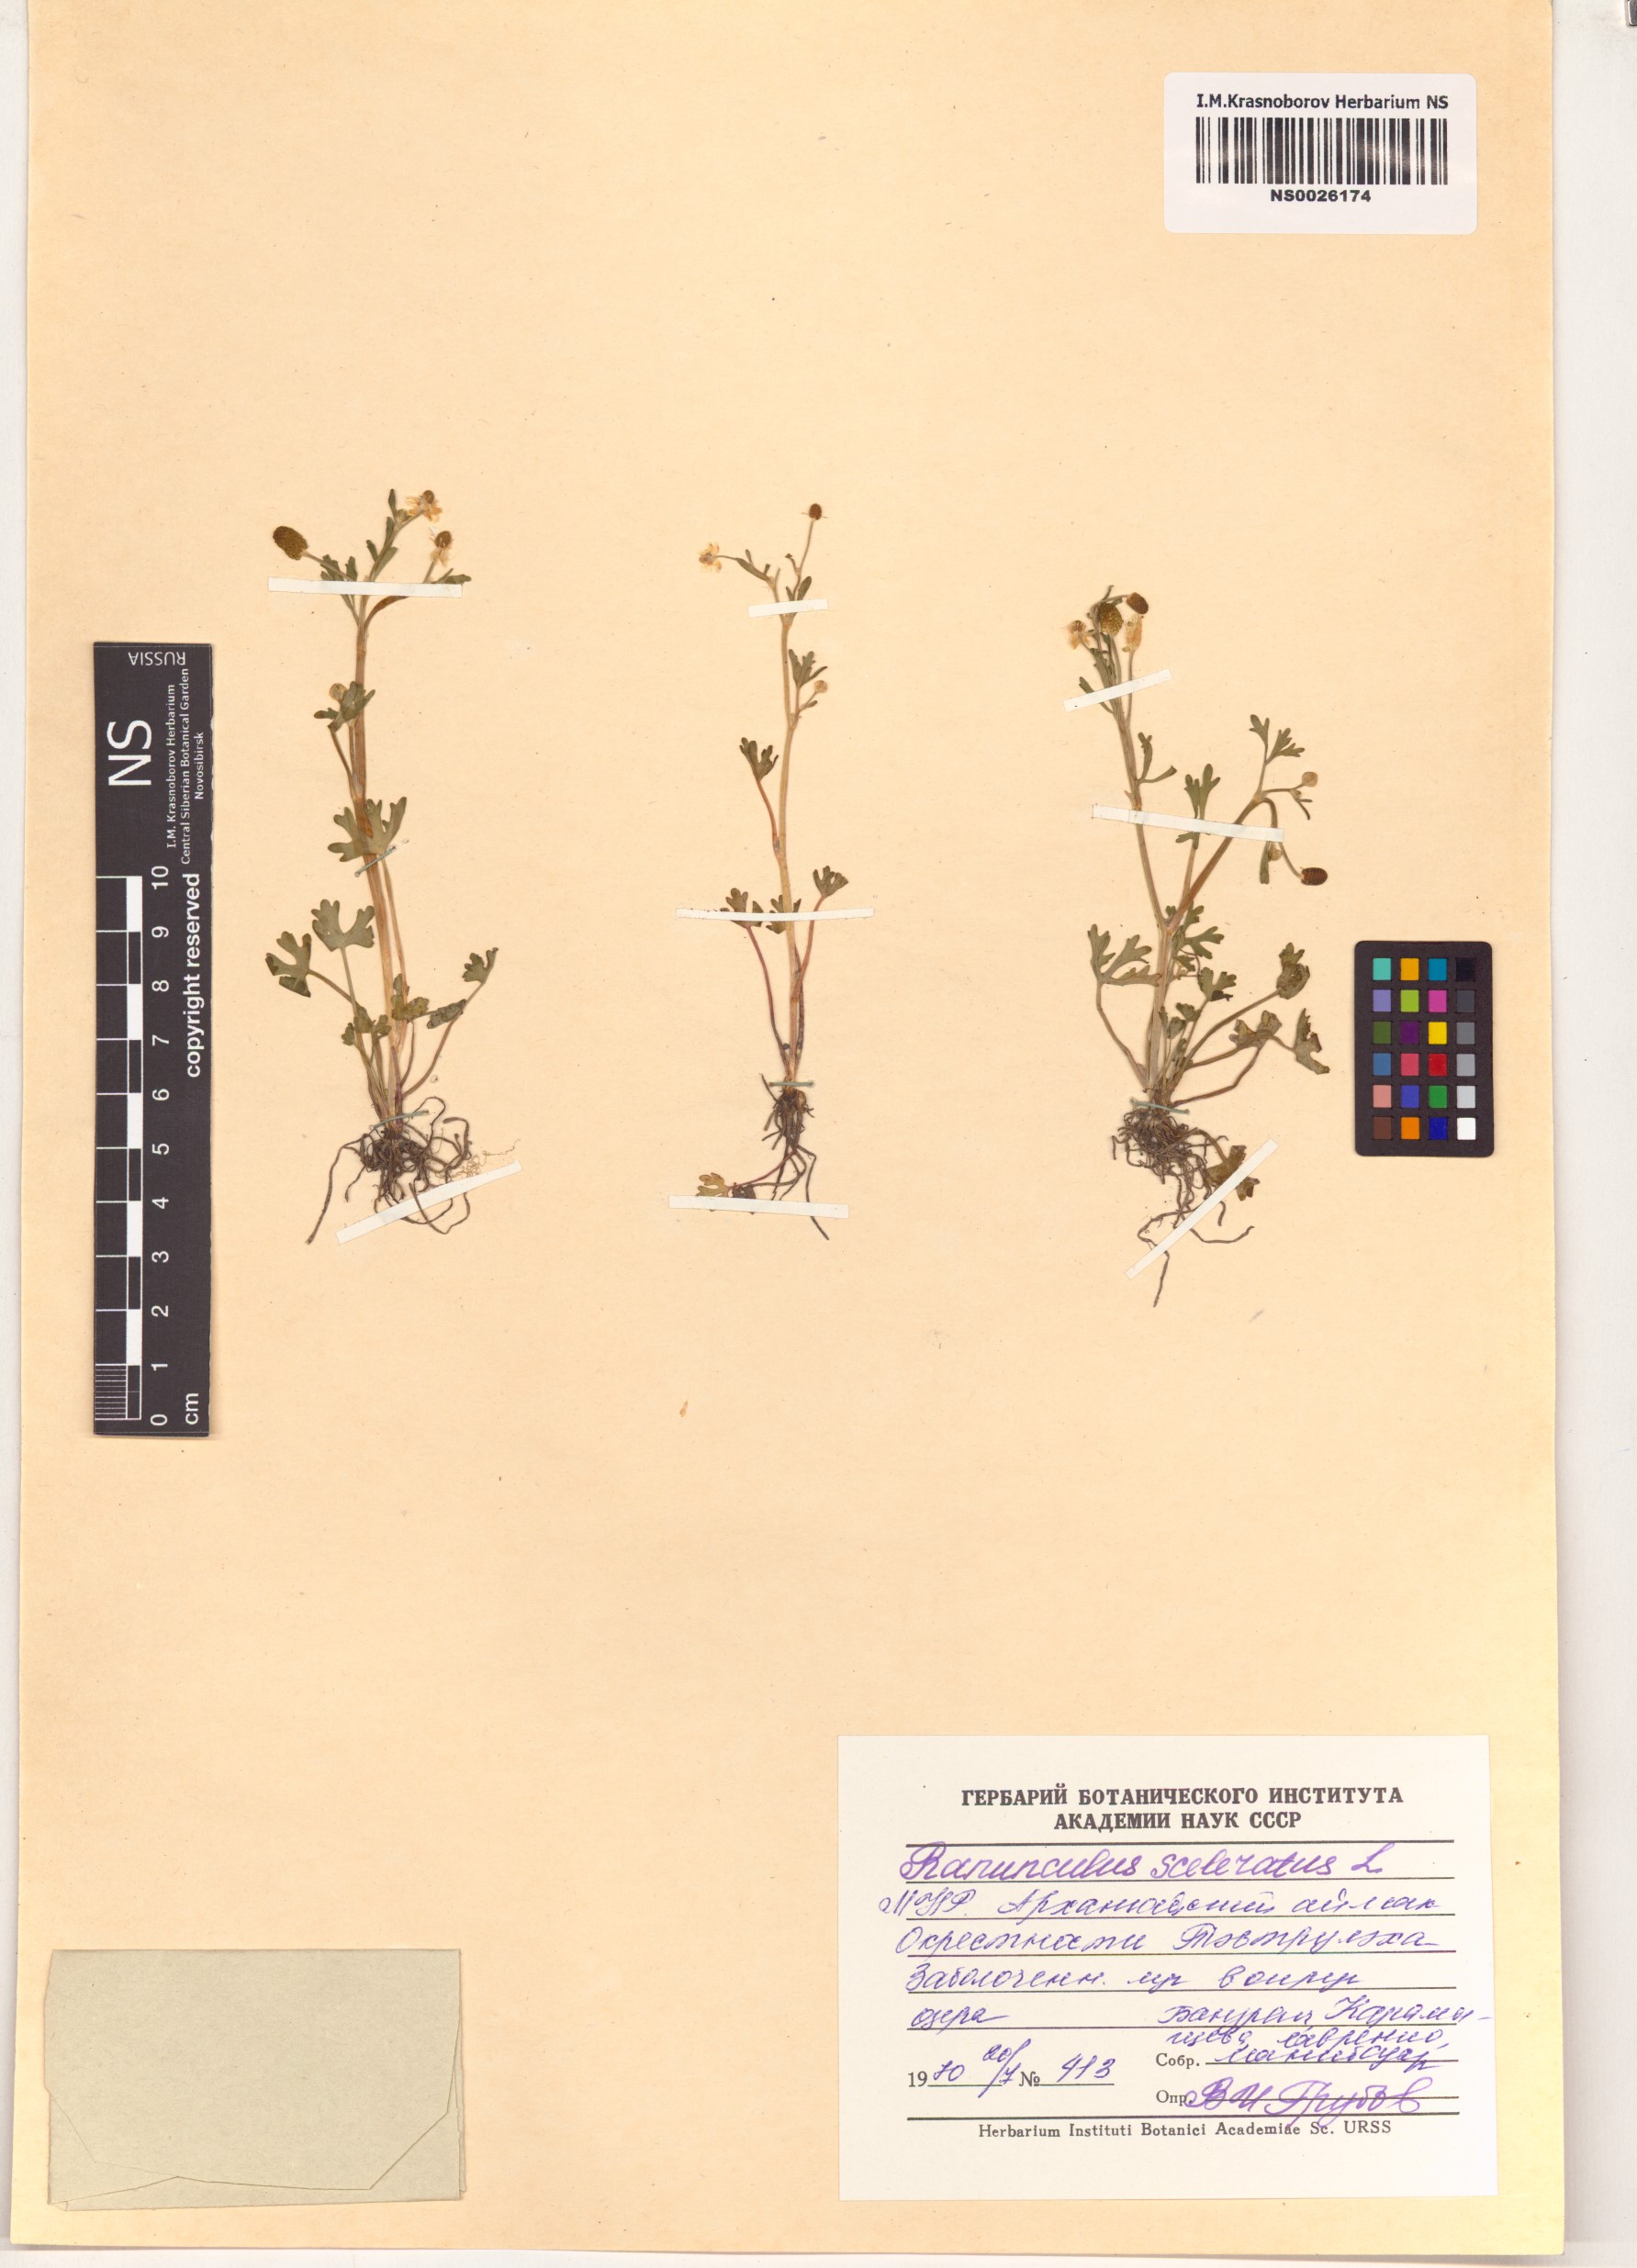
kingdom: Plantae
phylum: Tracheophyta
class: Magnoliopsida
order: Ranunculales
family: Ranunculaceae
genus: Ranunculus
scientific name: Ranunculus sceleratus
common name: Celery-leaved buttercup
